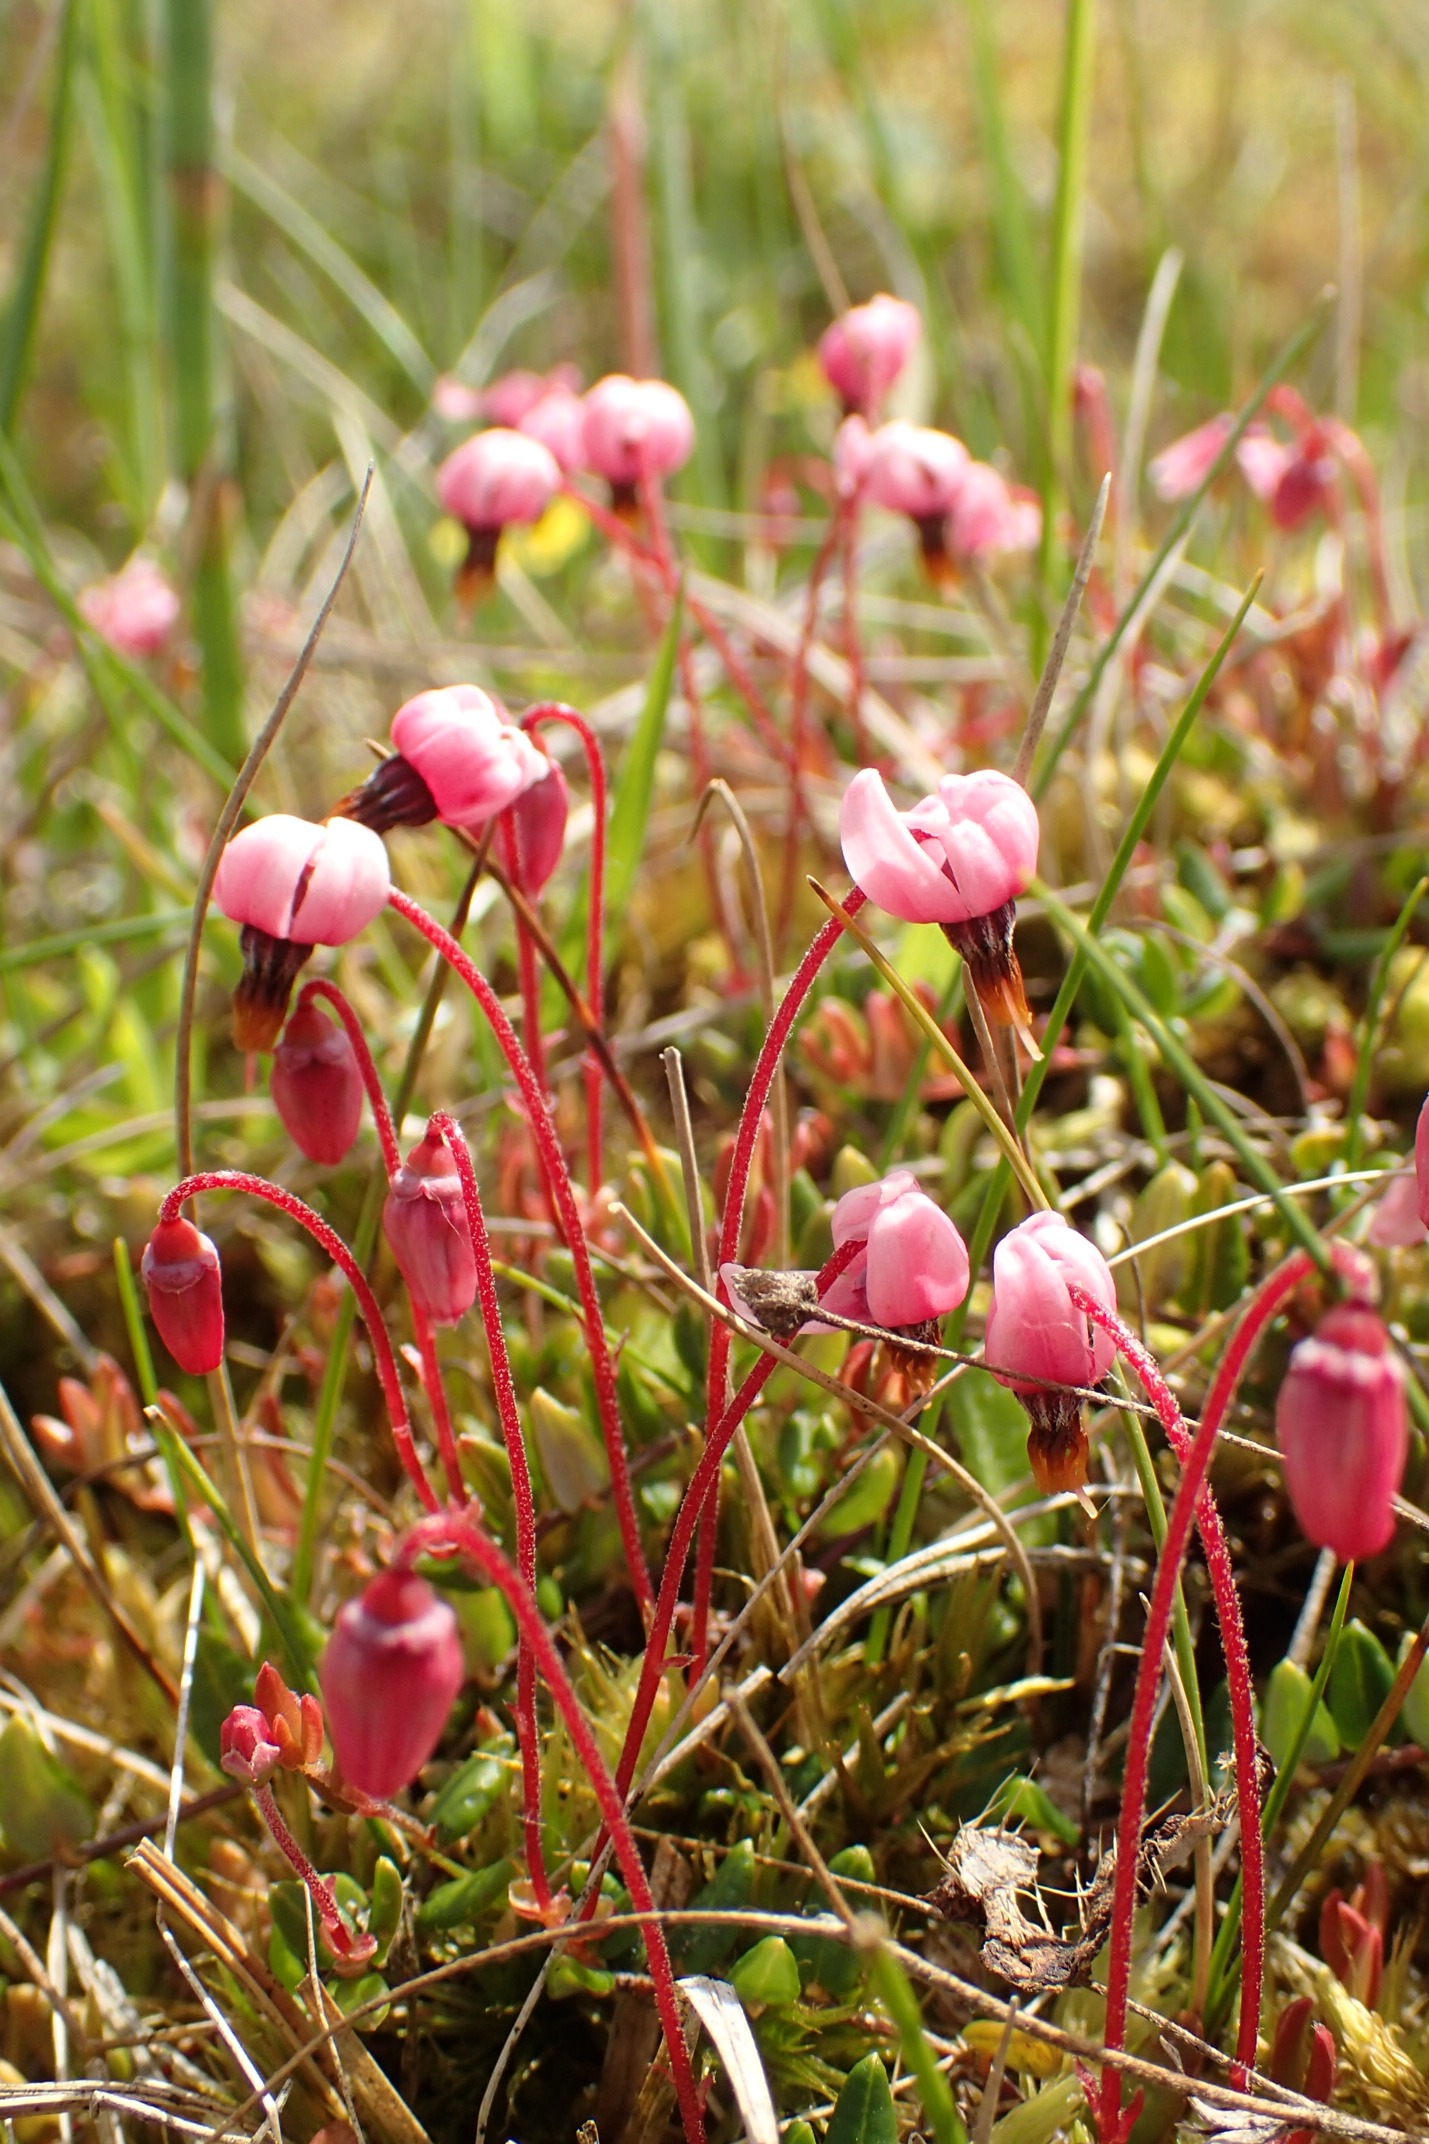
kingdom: Plantae
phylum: Tracheophyta
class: Magnoliopsida
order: Ericales
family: Ericaceae
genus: Vaccinium
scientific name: Vaccinium oxycoccos
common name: Tranebær
